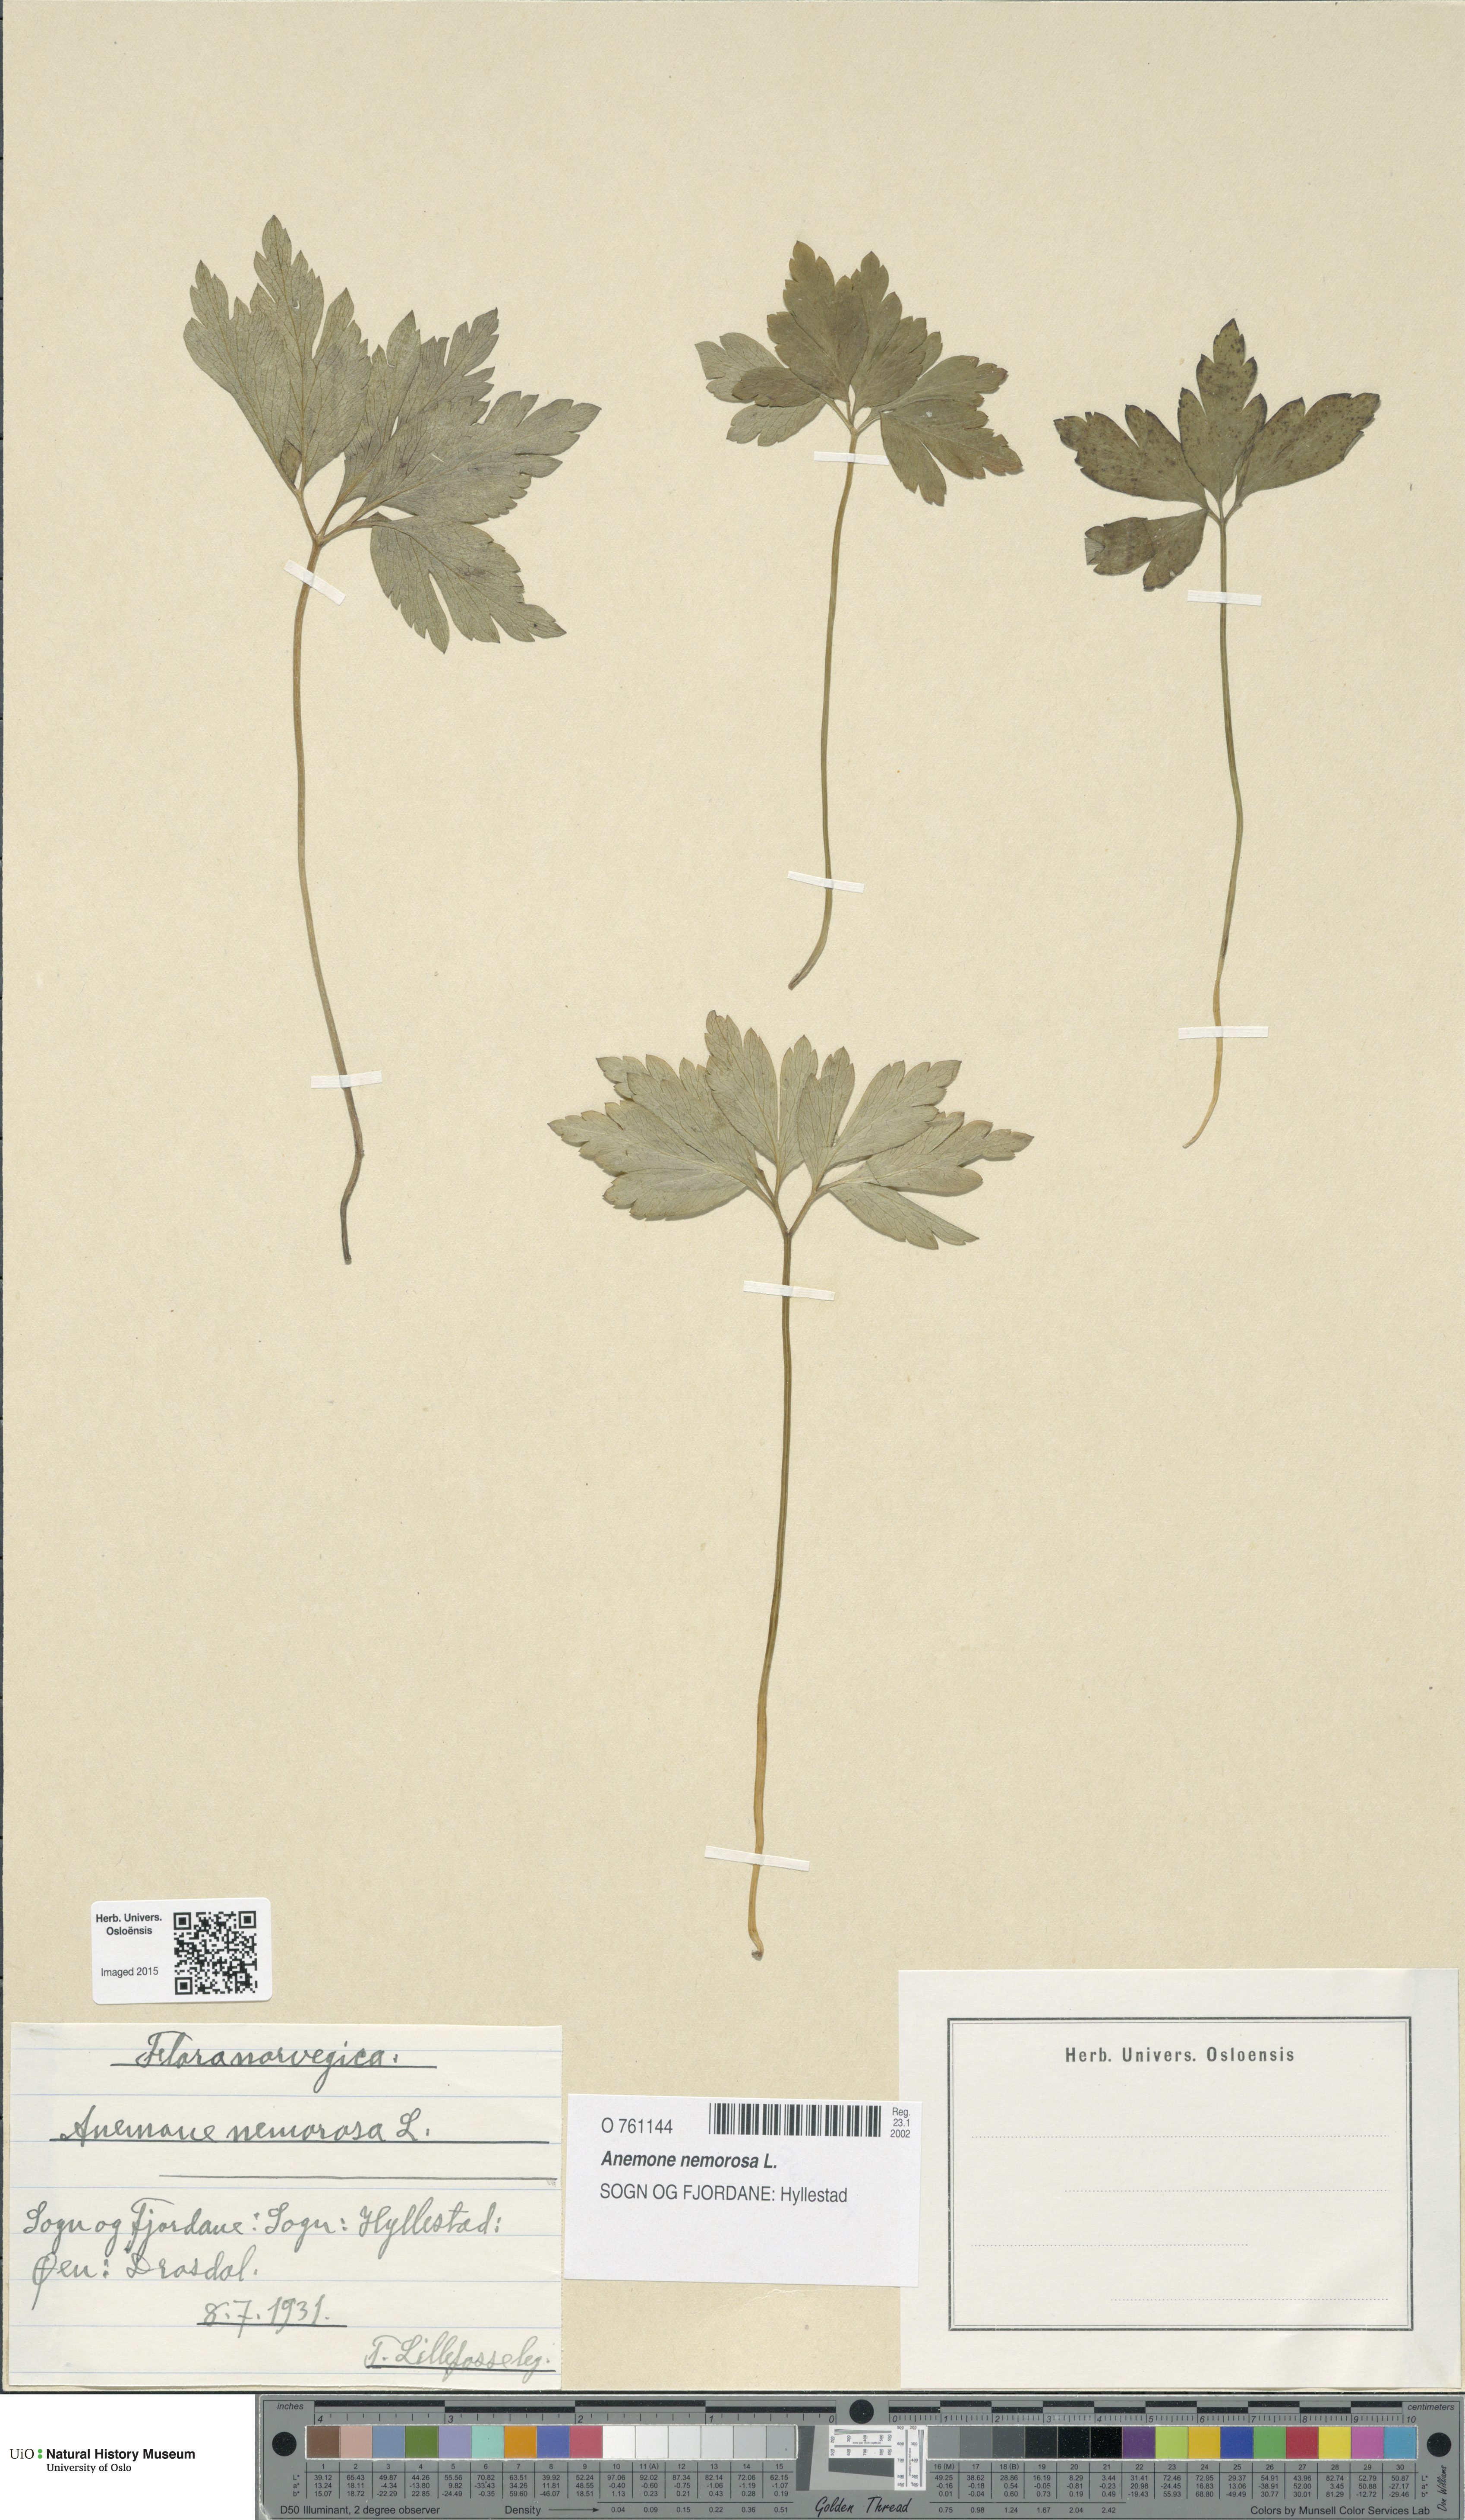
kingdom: Plantae
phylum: Tracheophyta
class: Magnoliopsida
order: Ranunculales
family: Ranunculaceae
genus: Anemone
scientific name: Anemone nemorosa
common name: Wood anemone
